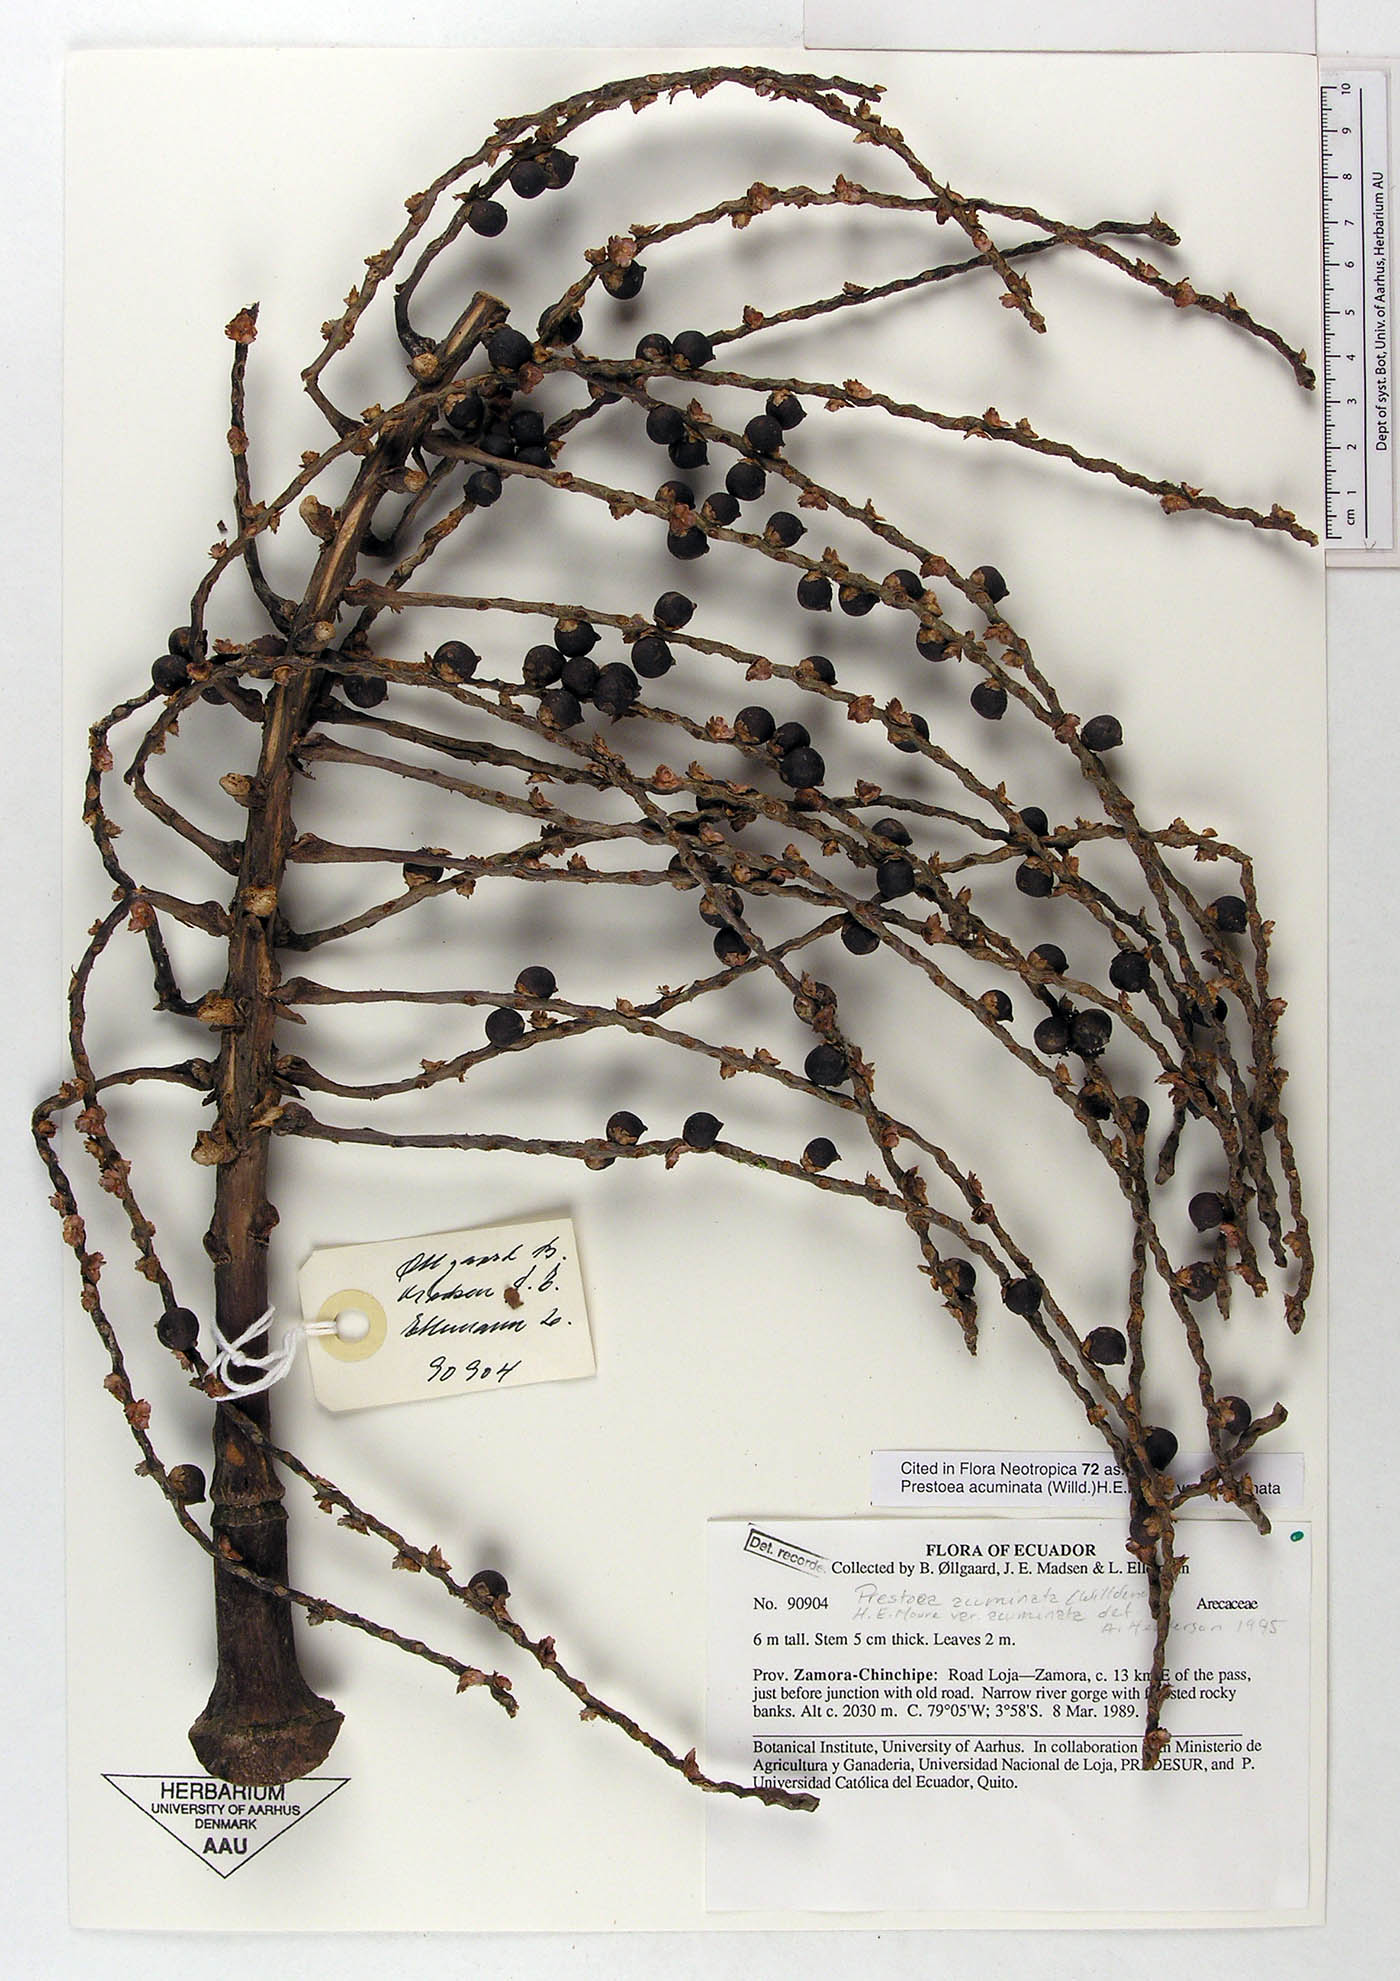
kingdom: Plantae
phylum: Tracheophyta
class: Liliopsida
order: Arecales
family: Arecaceae
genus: Prestoea
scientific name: Prestoea acuminata
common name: Sierran palm
